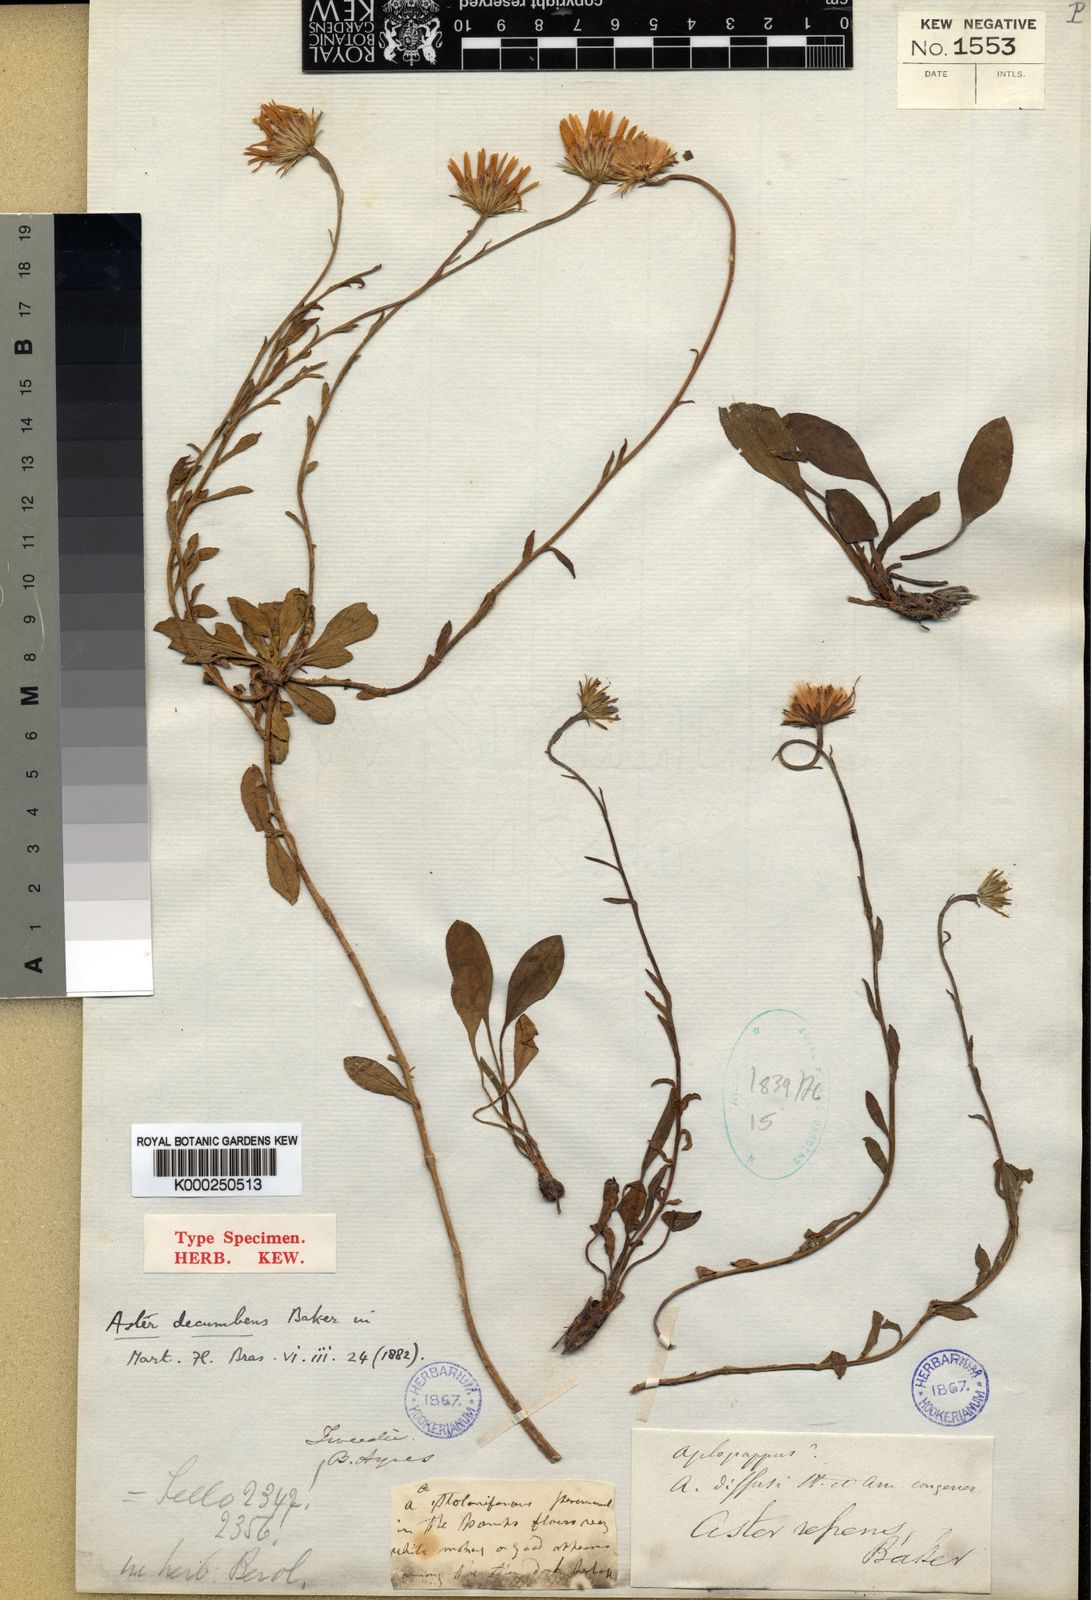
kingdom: Plantae
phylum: Tracheophyta
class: Magnoliopsida
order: Asterales
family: Asteraceae
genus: Noticastrum
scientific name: Noticastrum decumbens
